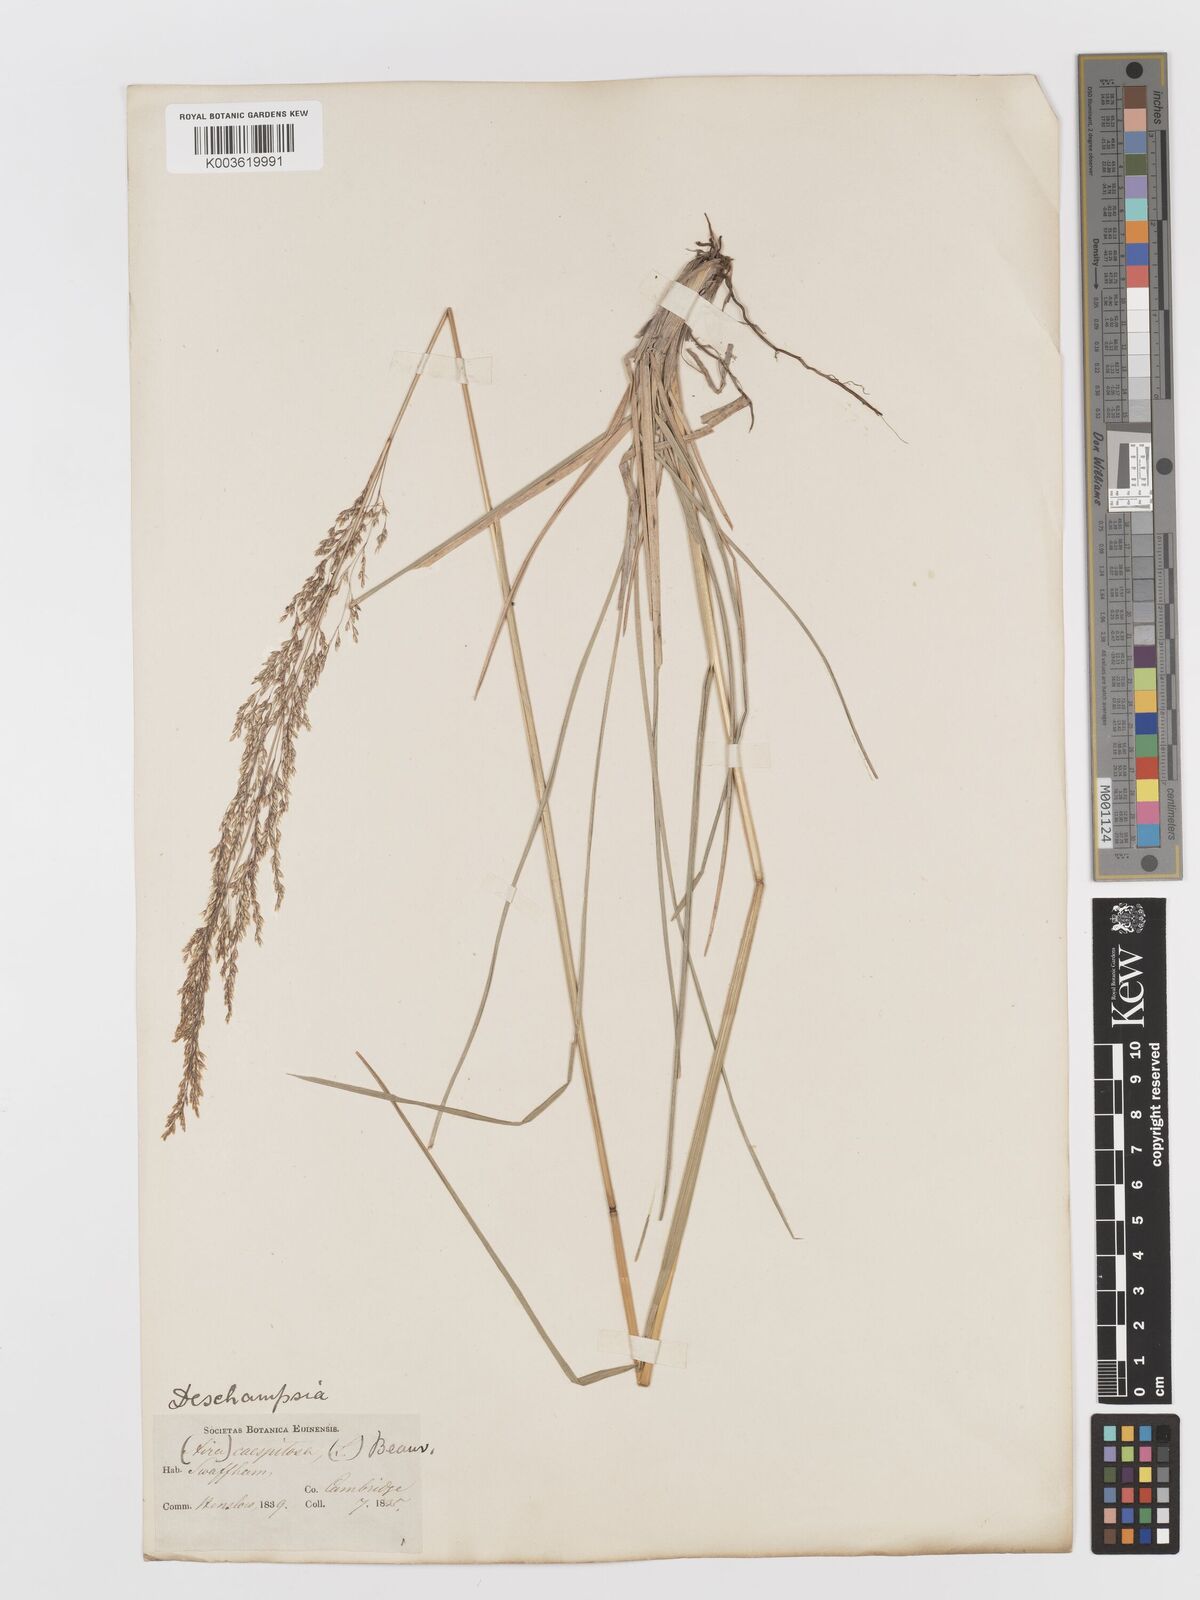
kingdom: Plantae
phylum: Tracheophyta
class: Liliopsida
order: Poales
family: Poaceae
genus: Deschampsia
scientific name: Deschampsia cespitosa
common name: Tufted hair-grass
